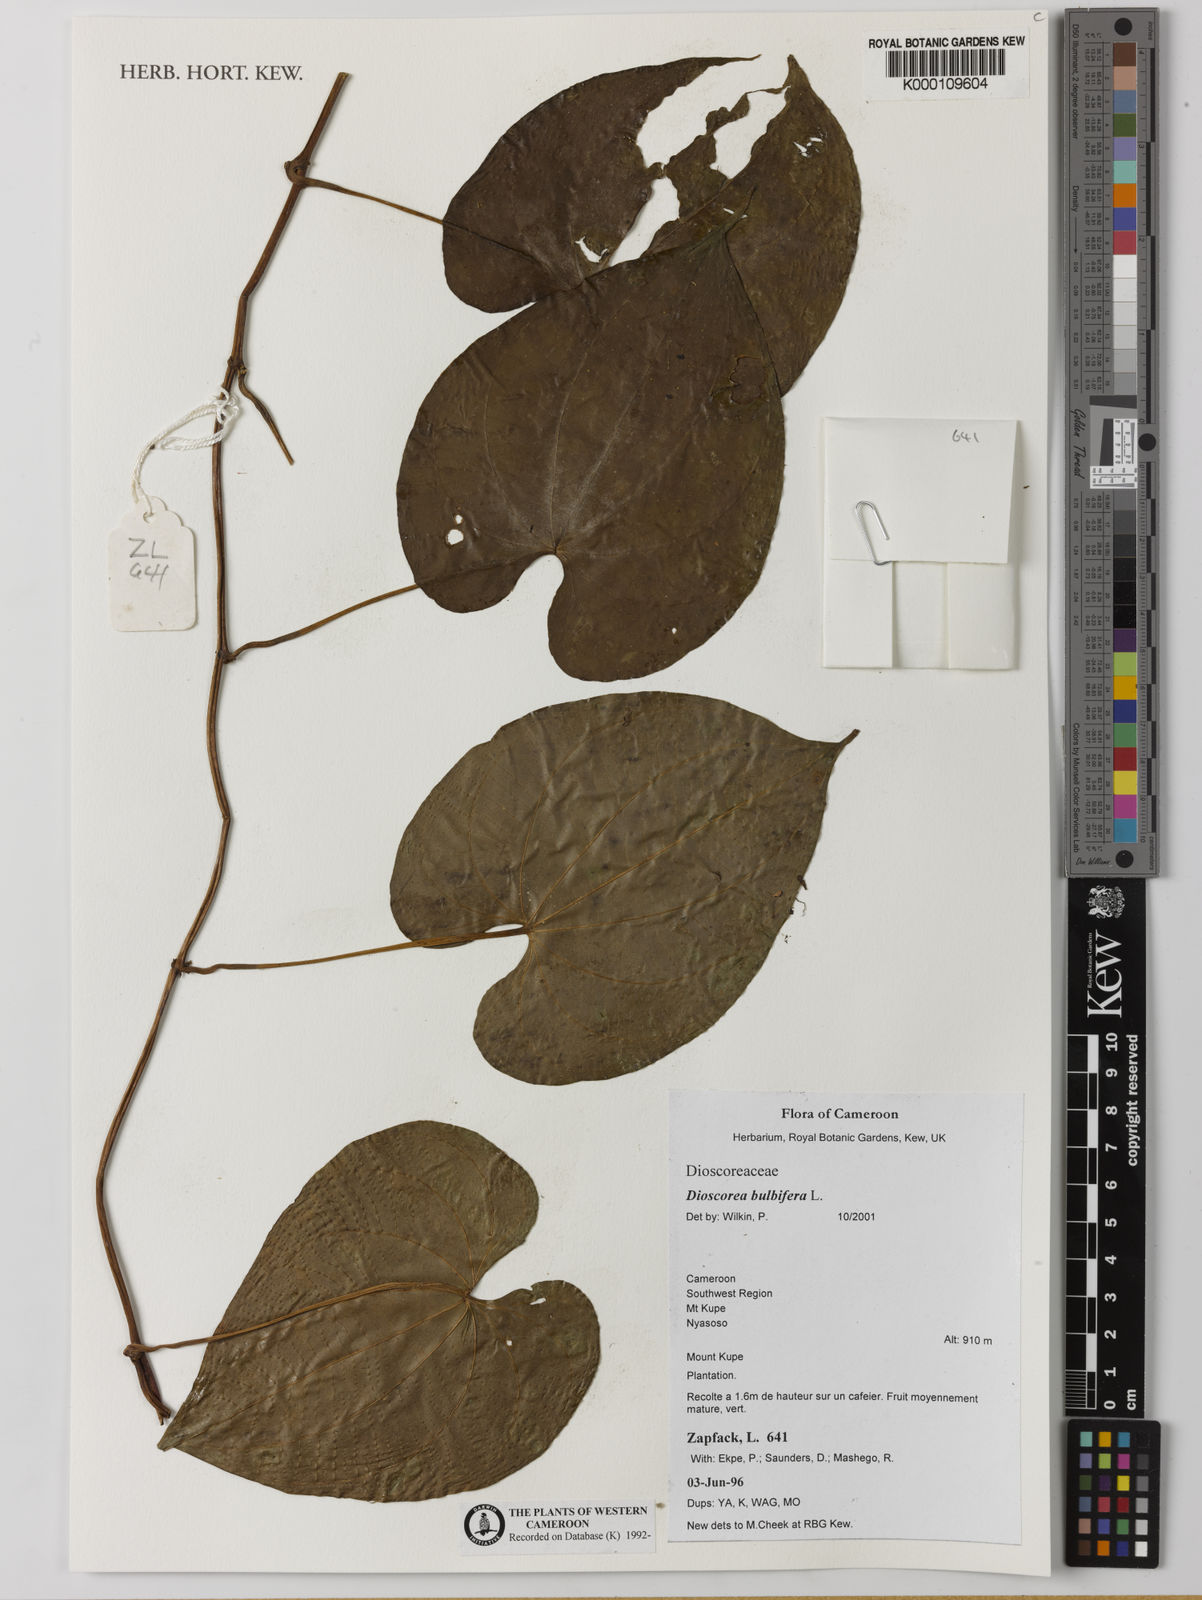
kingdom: Plantae
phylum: Tracheophyta
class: Liliopsida
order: Dioscoreales
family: Dioscoreaceae
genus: Dioscorea
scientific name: Dioscorea bulbifera
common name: Air yam
